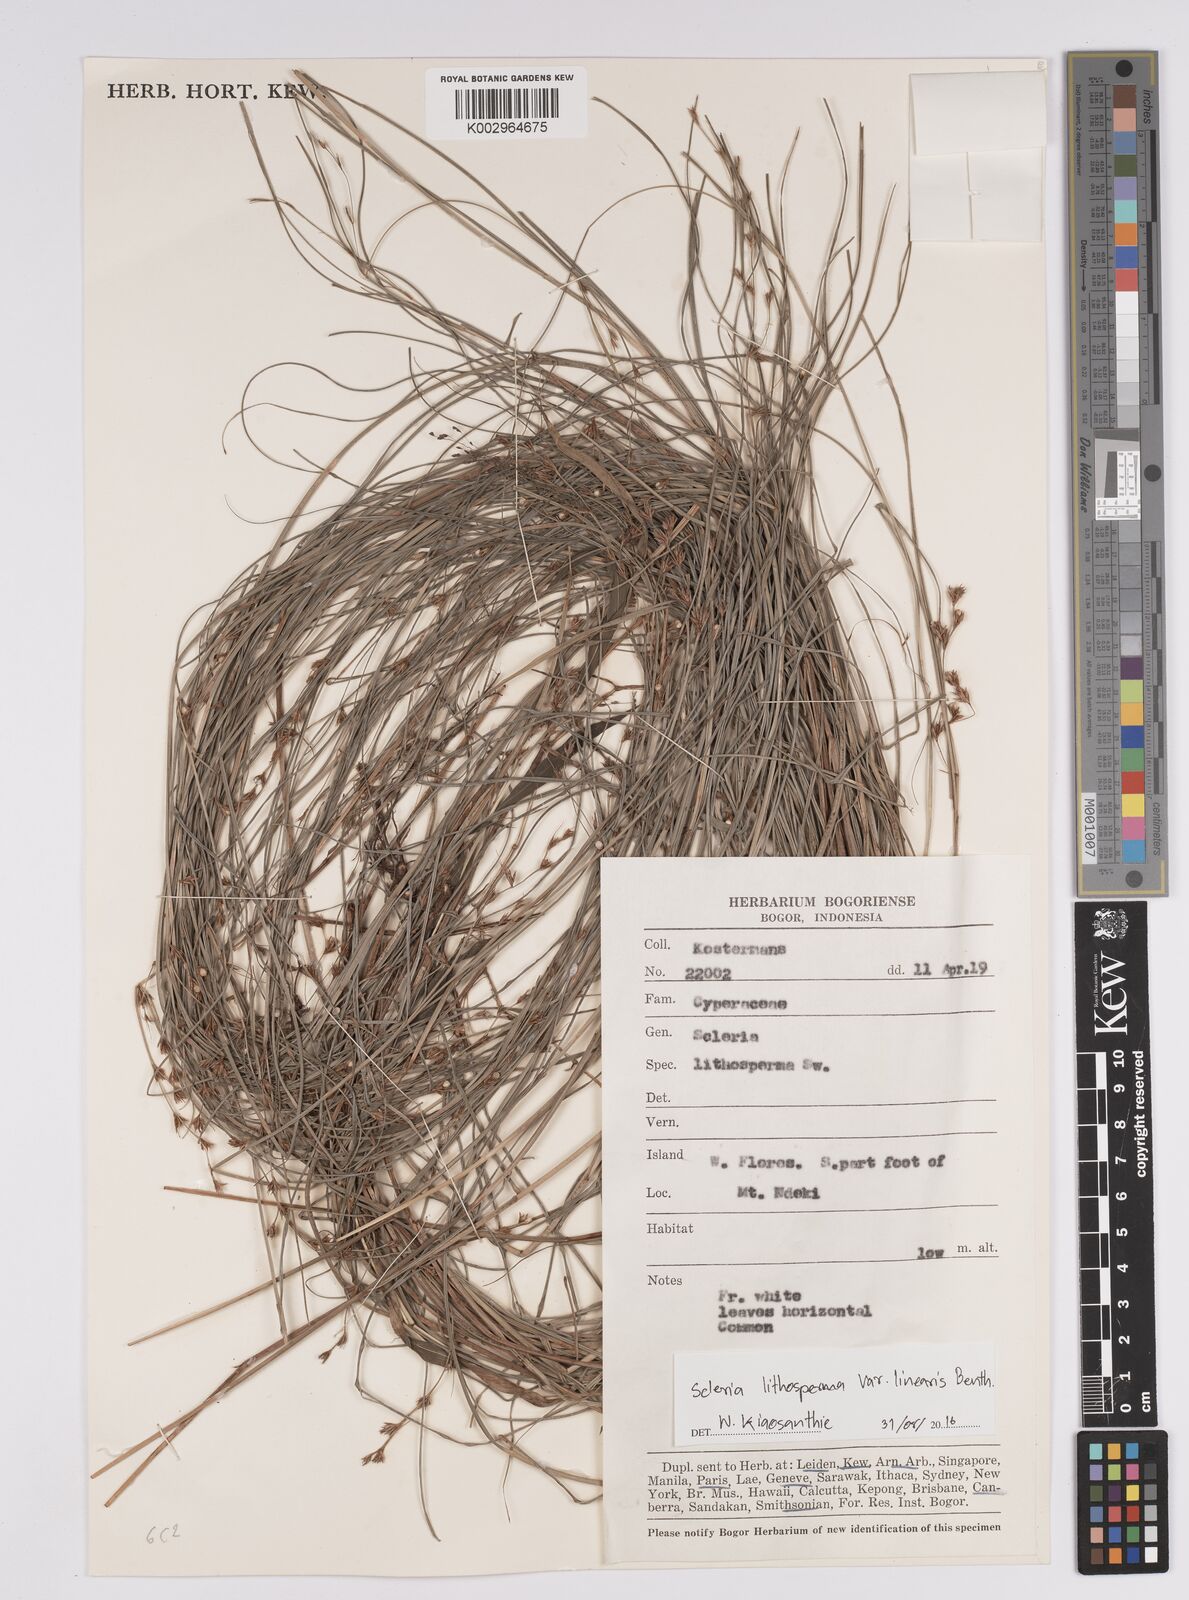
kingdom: Plantae
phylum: Tracheophyta
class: Liliopsida
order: Poales
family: Cyperaceae
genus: Scleria
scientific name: Scleria lithosperma
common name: Florida keys nut-rush
